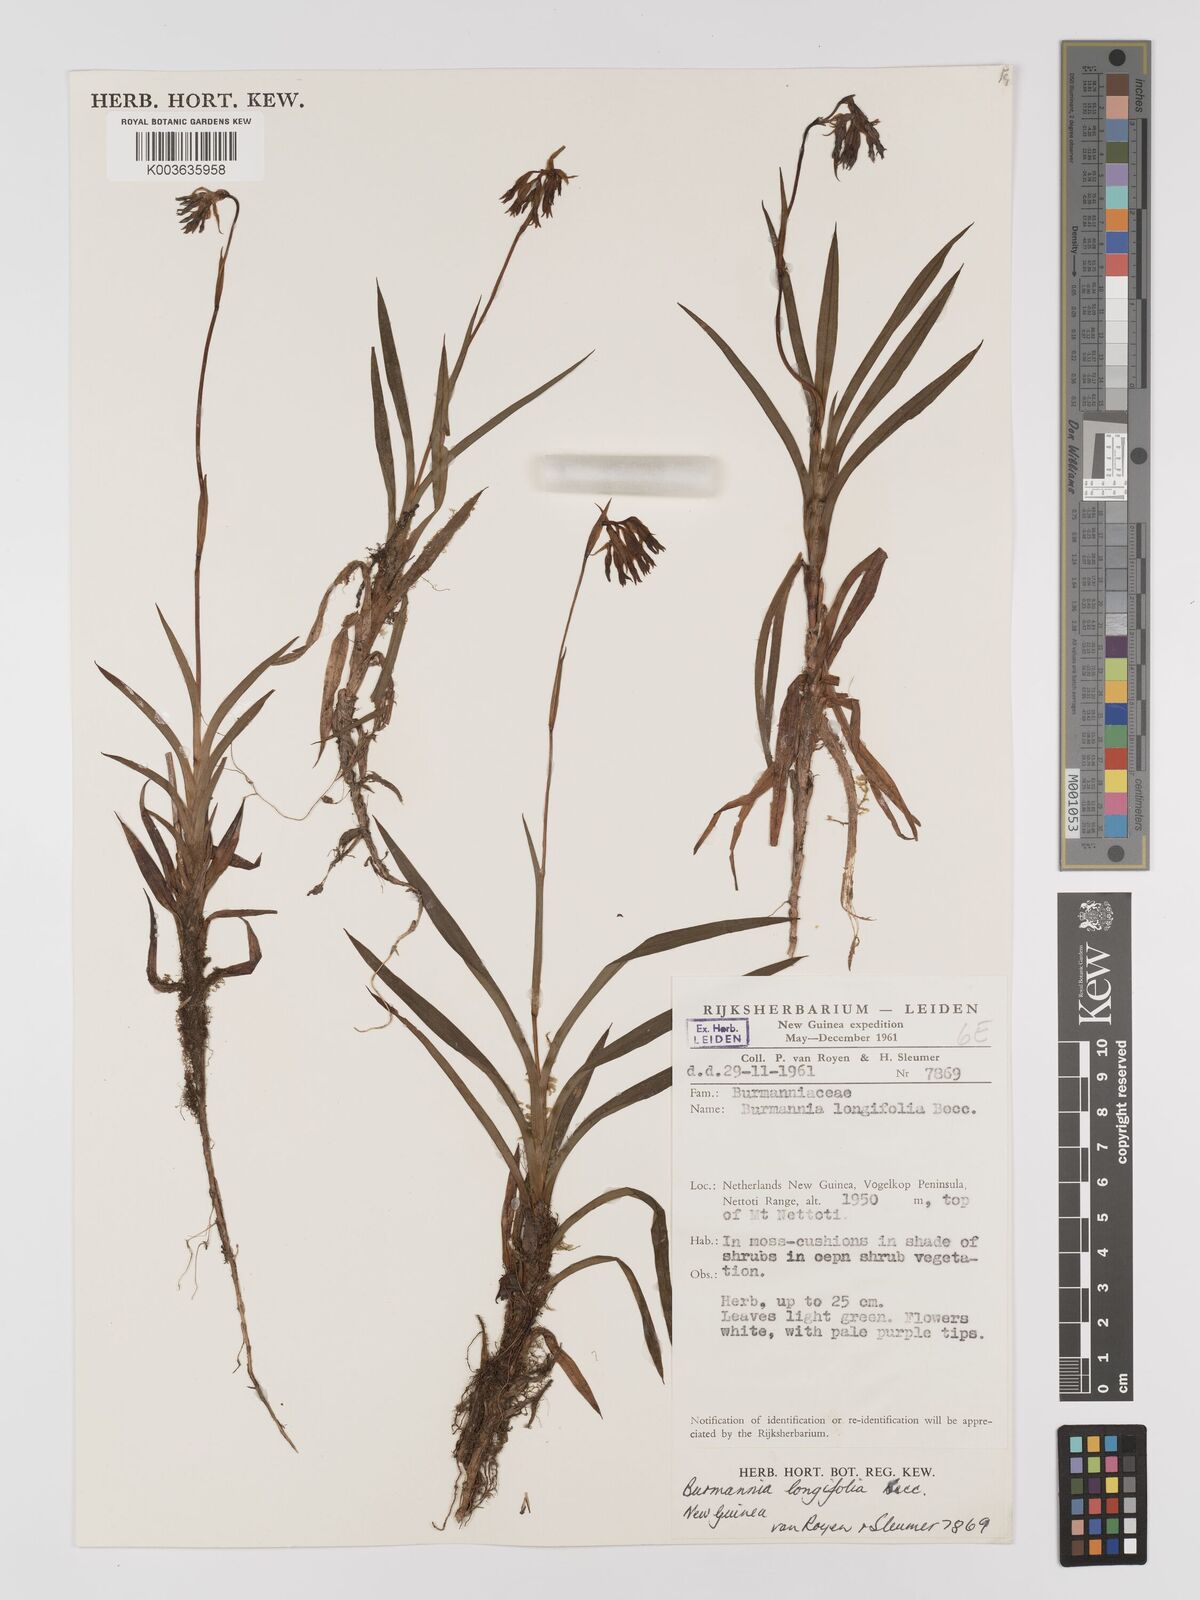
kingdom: Plantae
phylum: Tracheophyta
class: Liliopsida
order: Dioscoreales
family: Burmanniaceae
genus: Burmannia
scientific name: Burmannia longifolia
